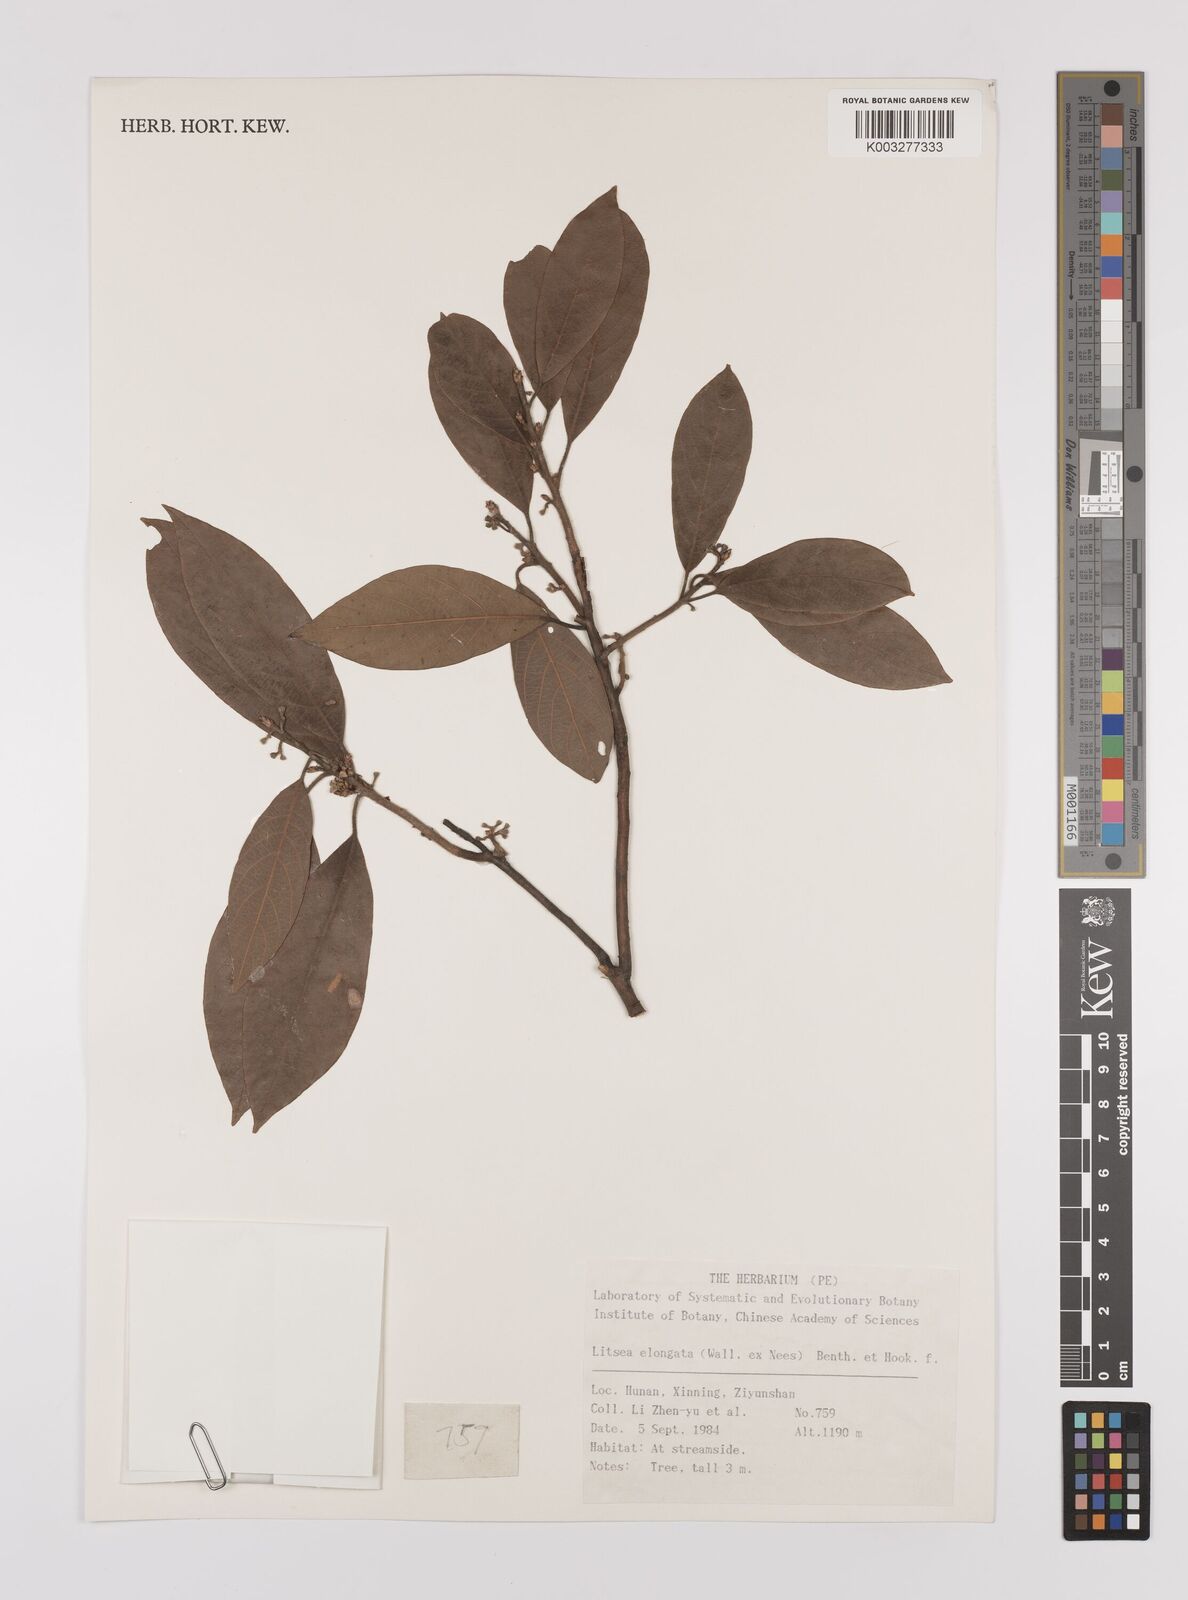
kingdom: Plantae
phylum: Tracheophyta
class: Magnoliopsida
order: Laurales
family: Lauraceae
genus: Litsea
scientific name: Litsea elongata
